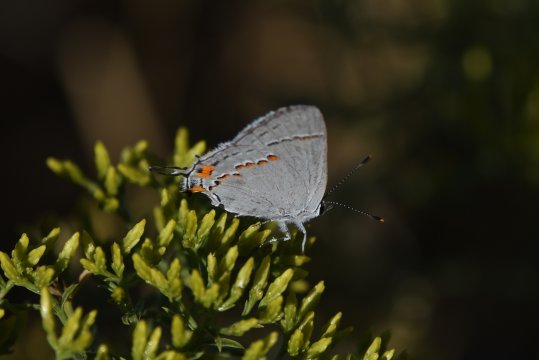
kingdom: Animalia
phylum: Arthropoda
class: Insecta
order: Lepidoptera
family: Lycaenidae
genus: Strymon
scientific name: Strymon melinus
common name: Gray Hairstreak
